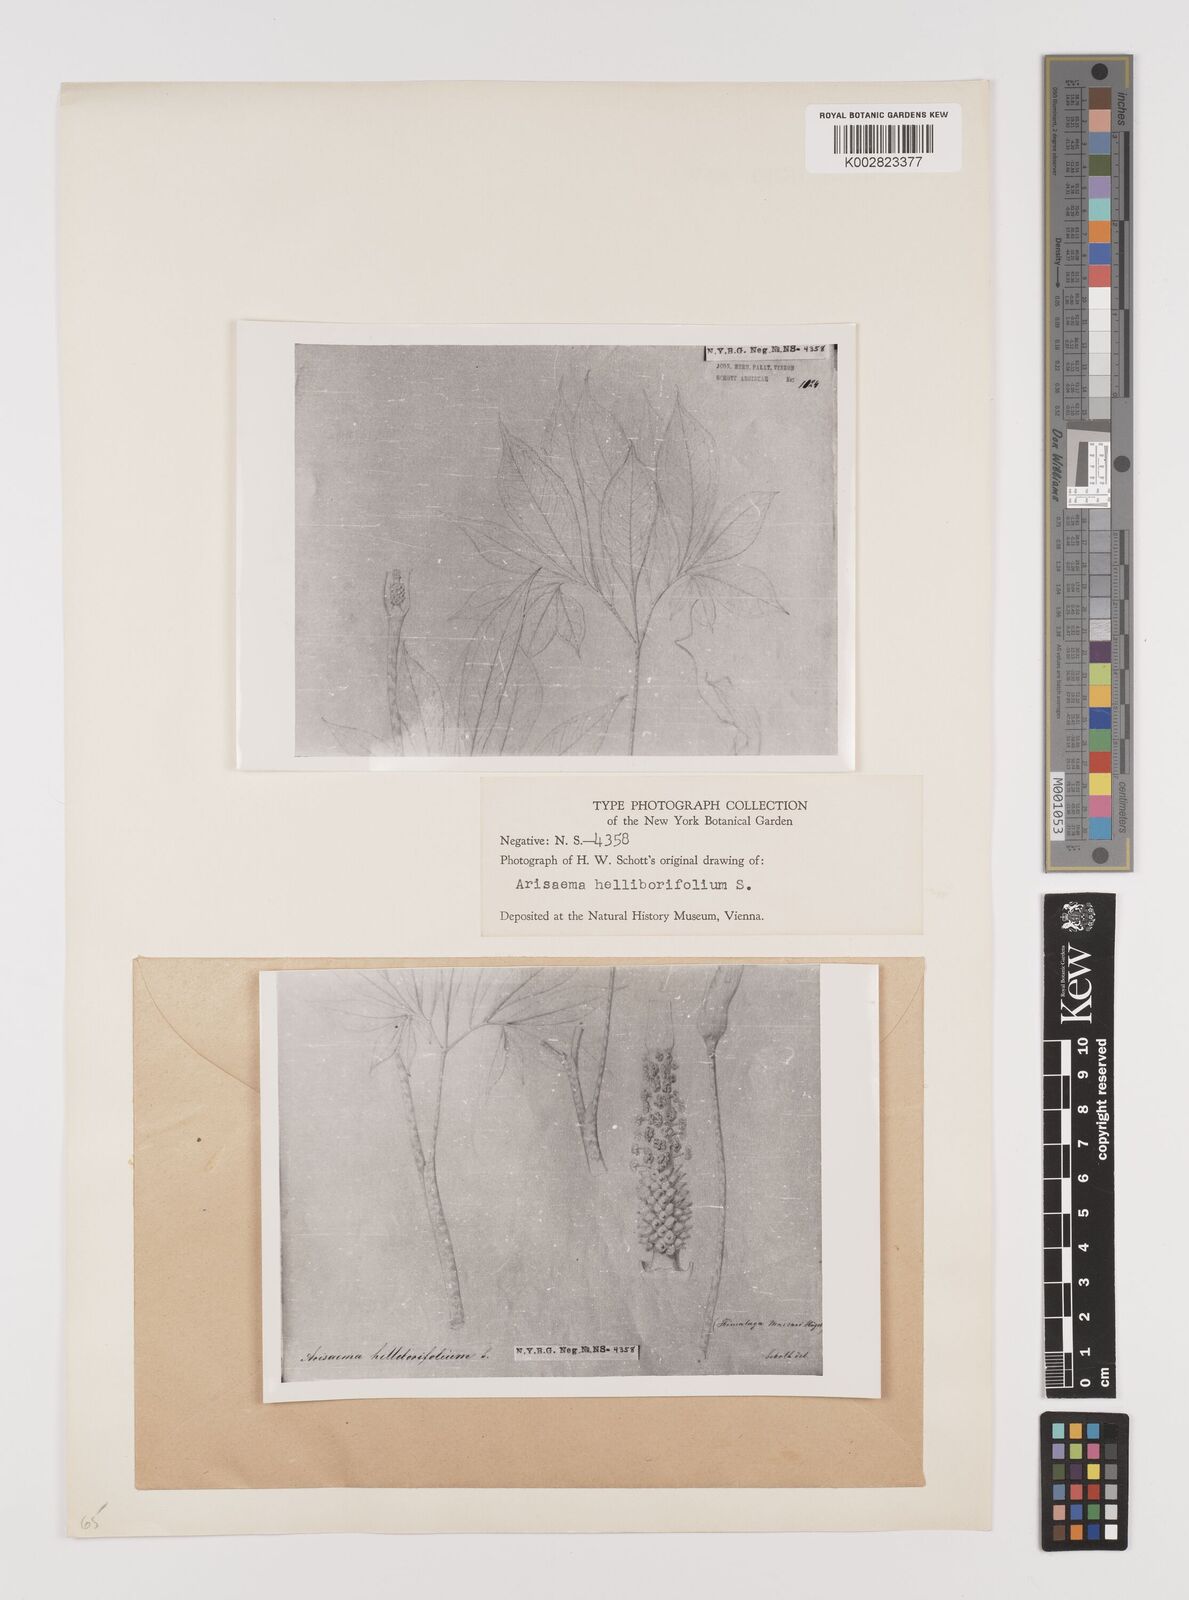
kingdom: Plantae
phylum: Tracheophyta
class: Liliopsida
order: Alismatales
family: Araceae
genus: Arisaema
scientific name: Arisaema tortuosum
